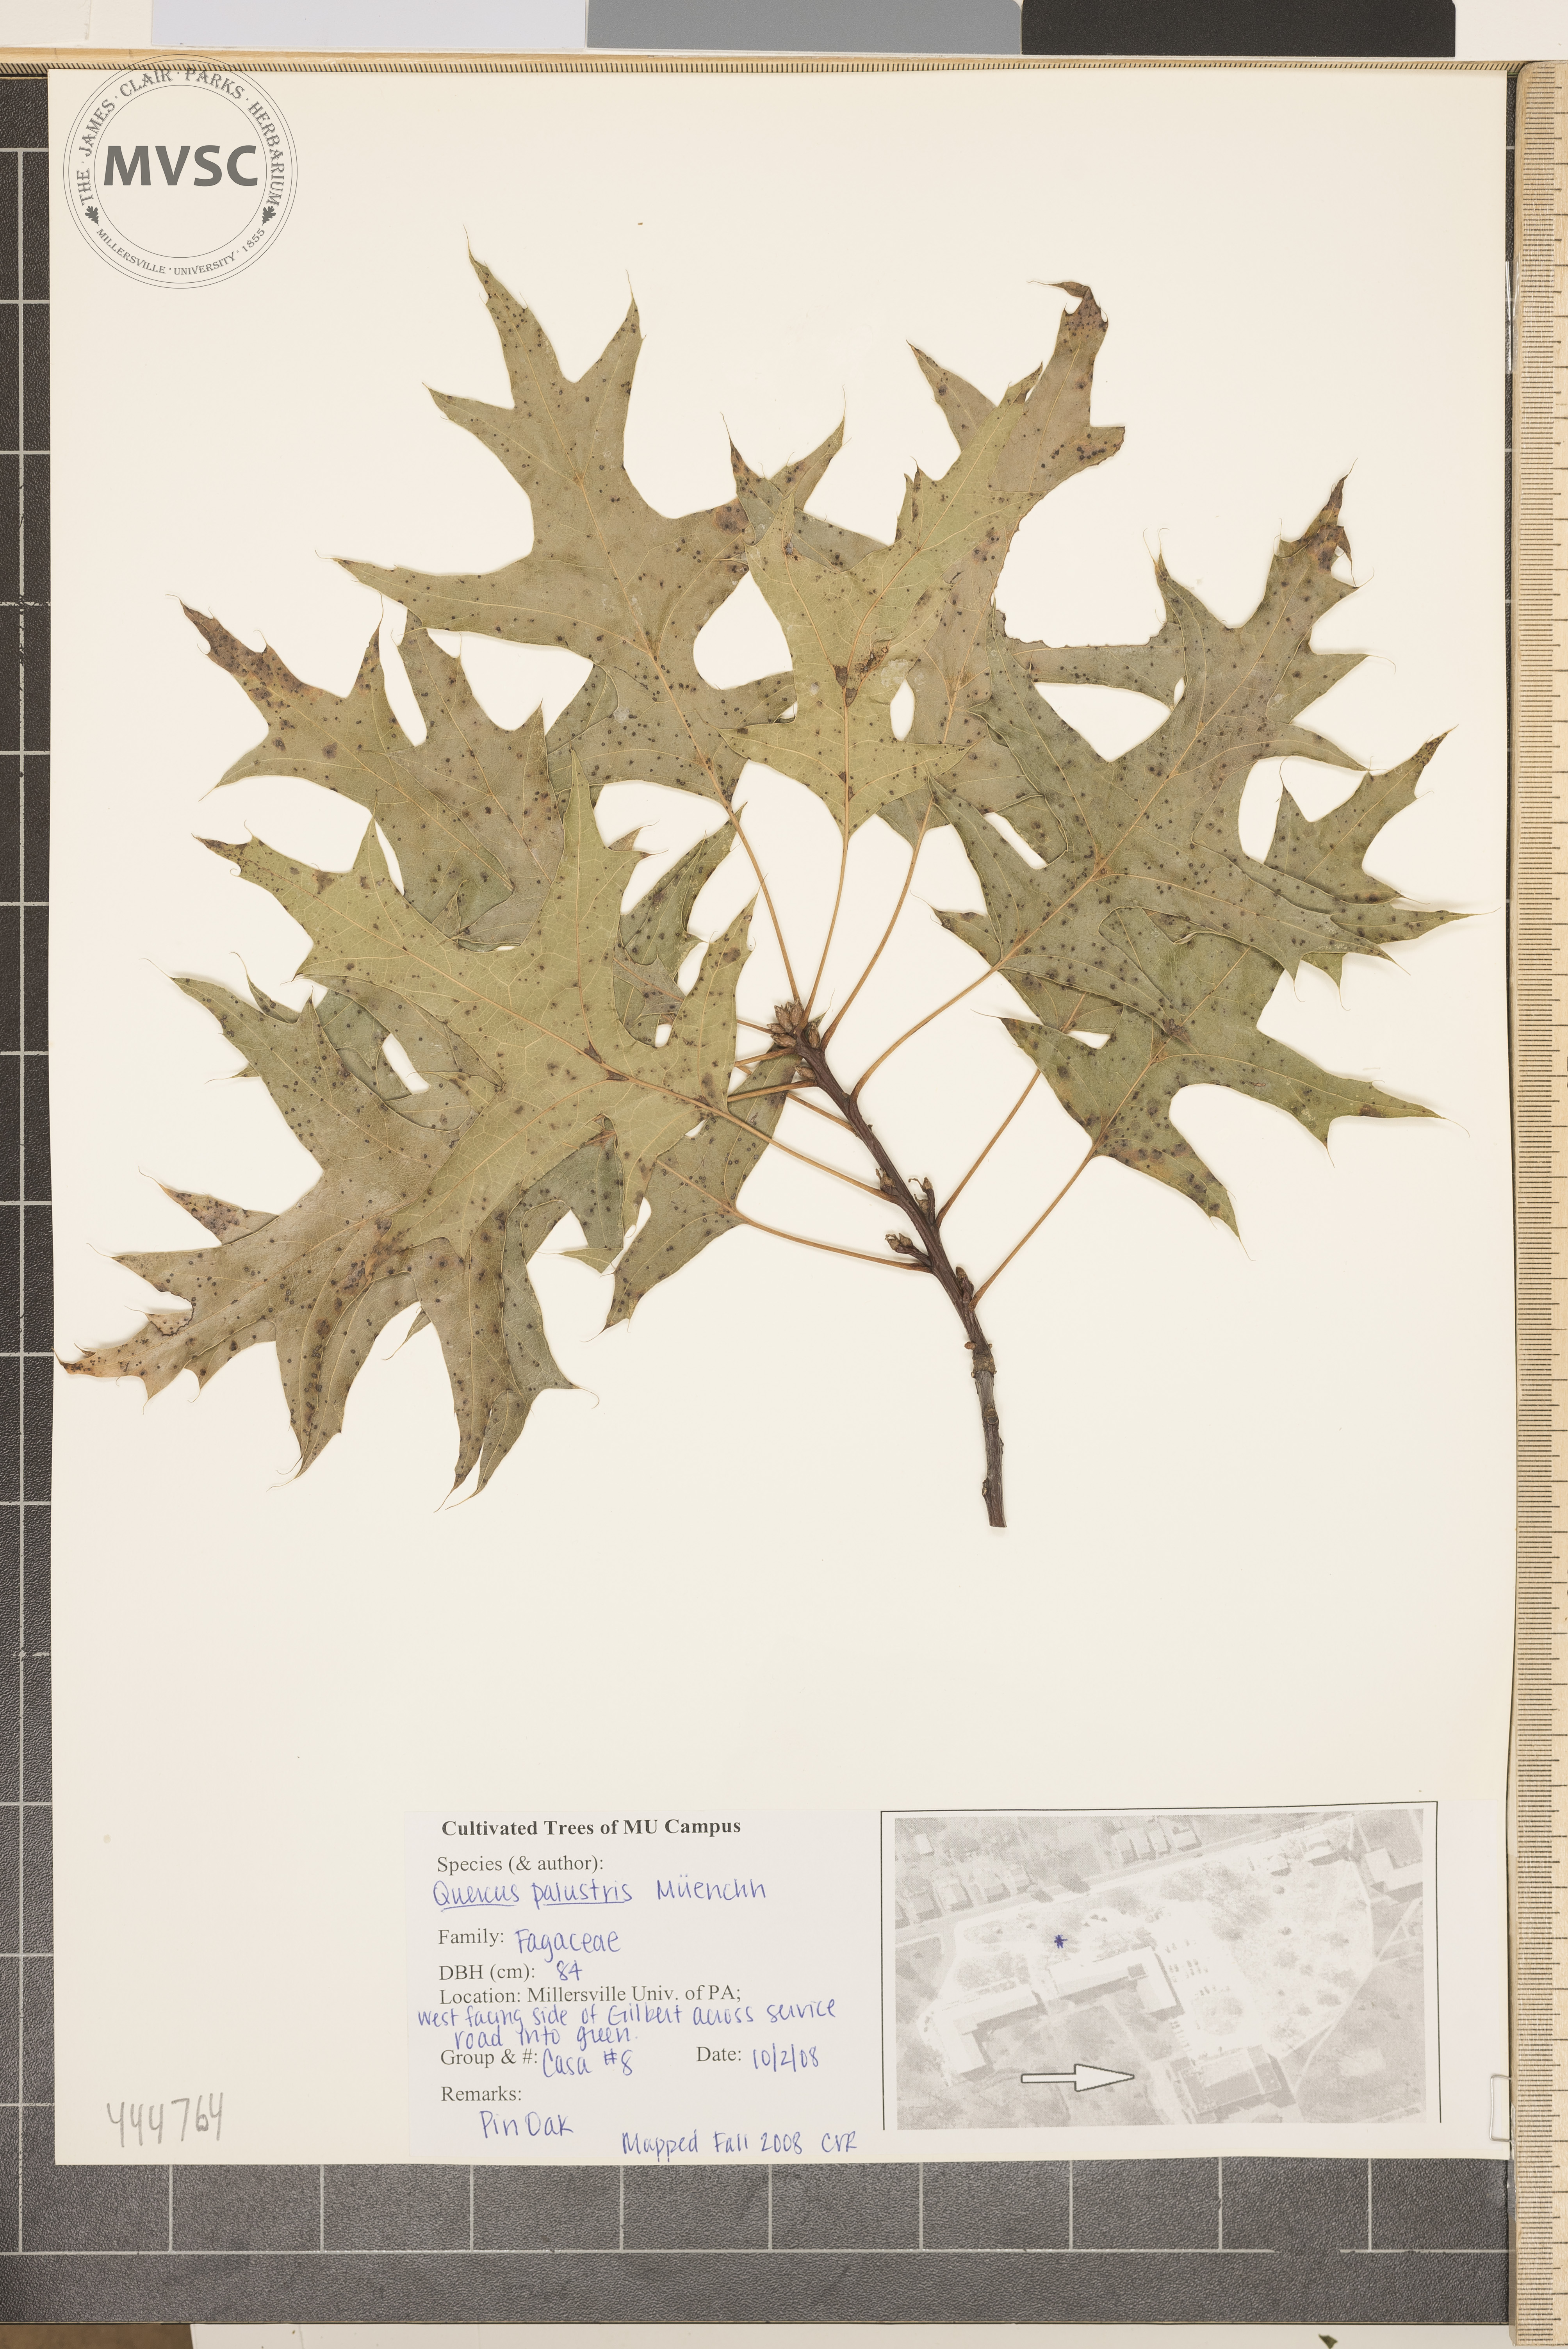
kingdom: Plantae
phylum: Tracheophyta
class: Magnoliopsida
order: Fagales
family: Fagaceae
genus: Quercus
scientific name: Quercus palustris
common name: Pin oak
